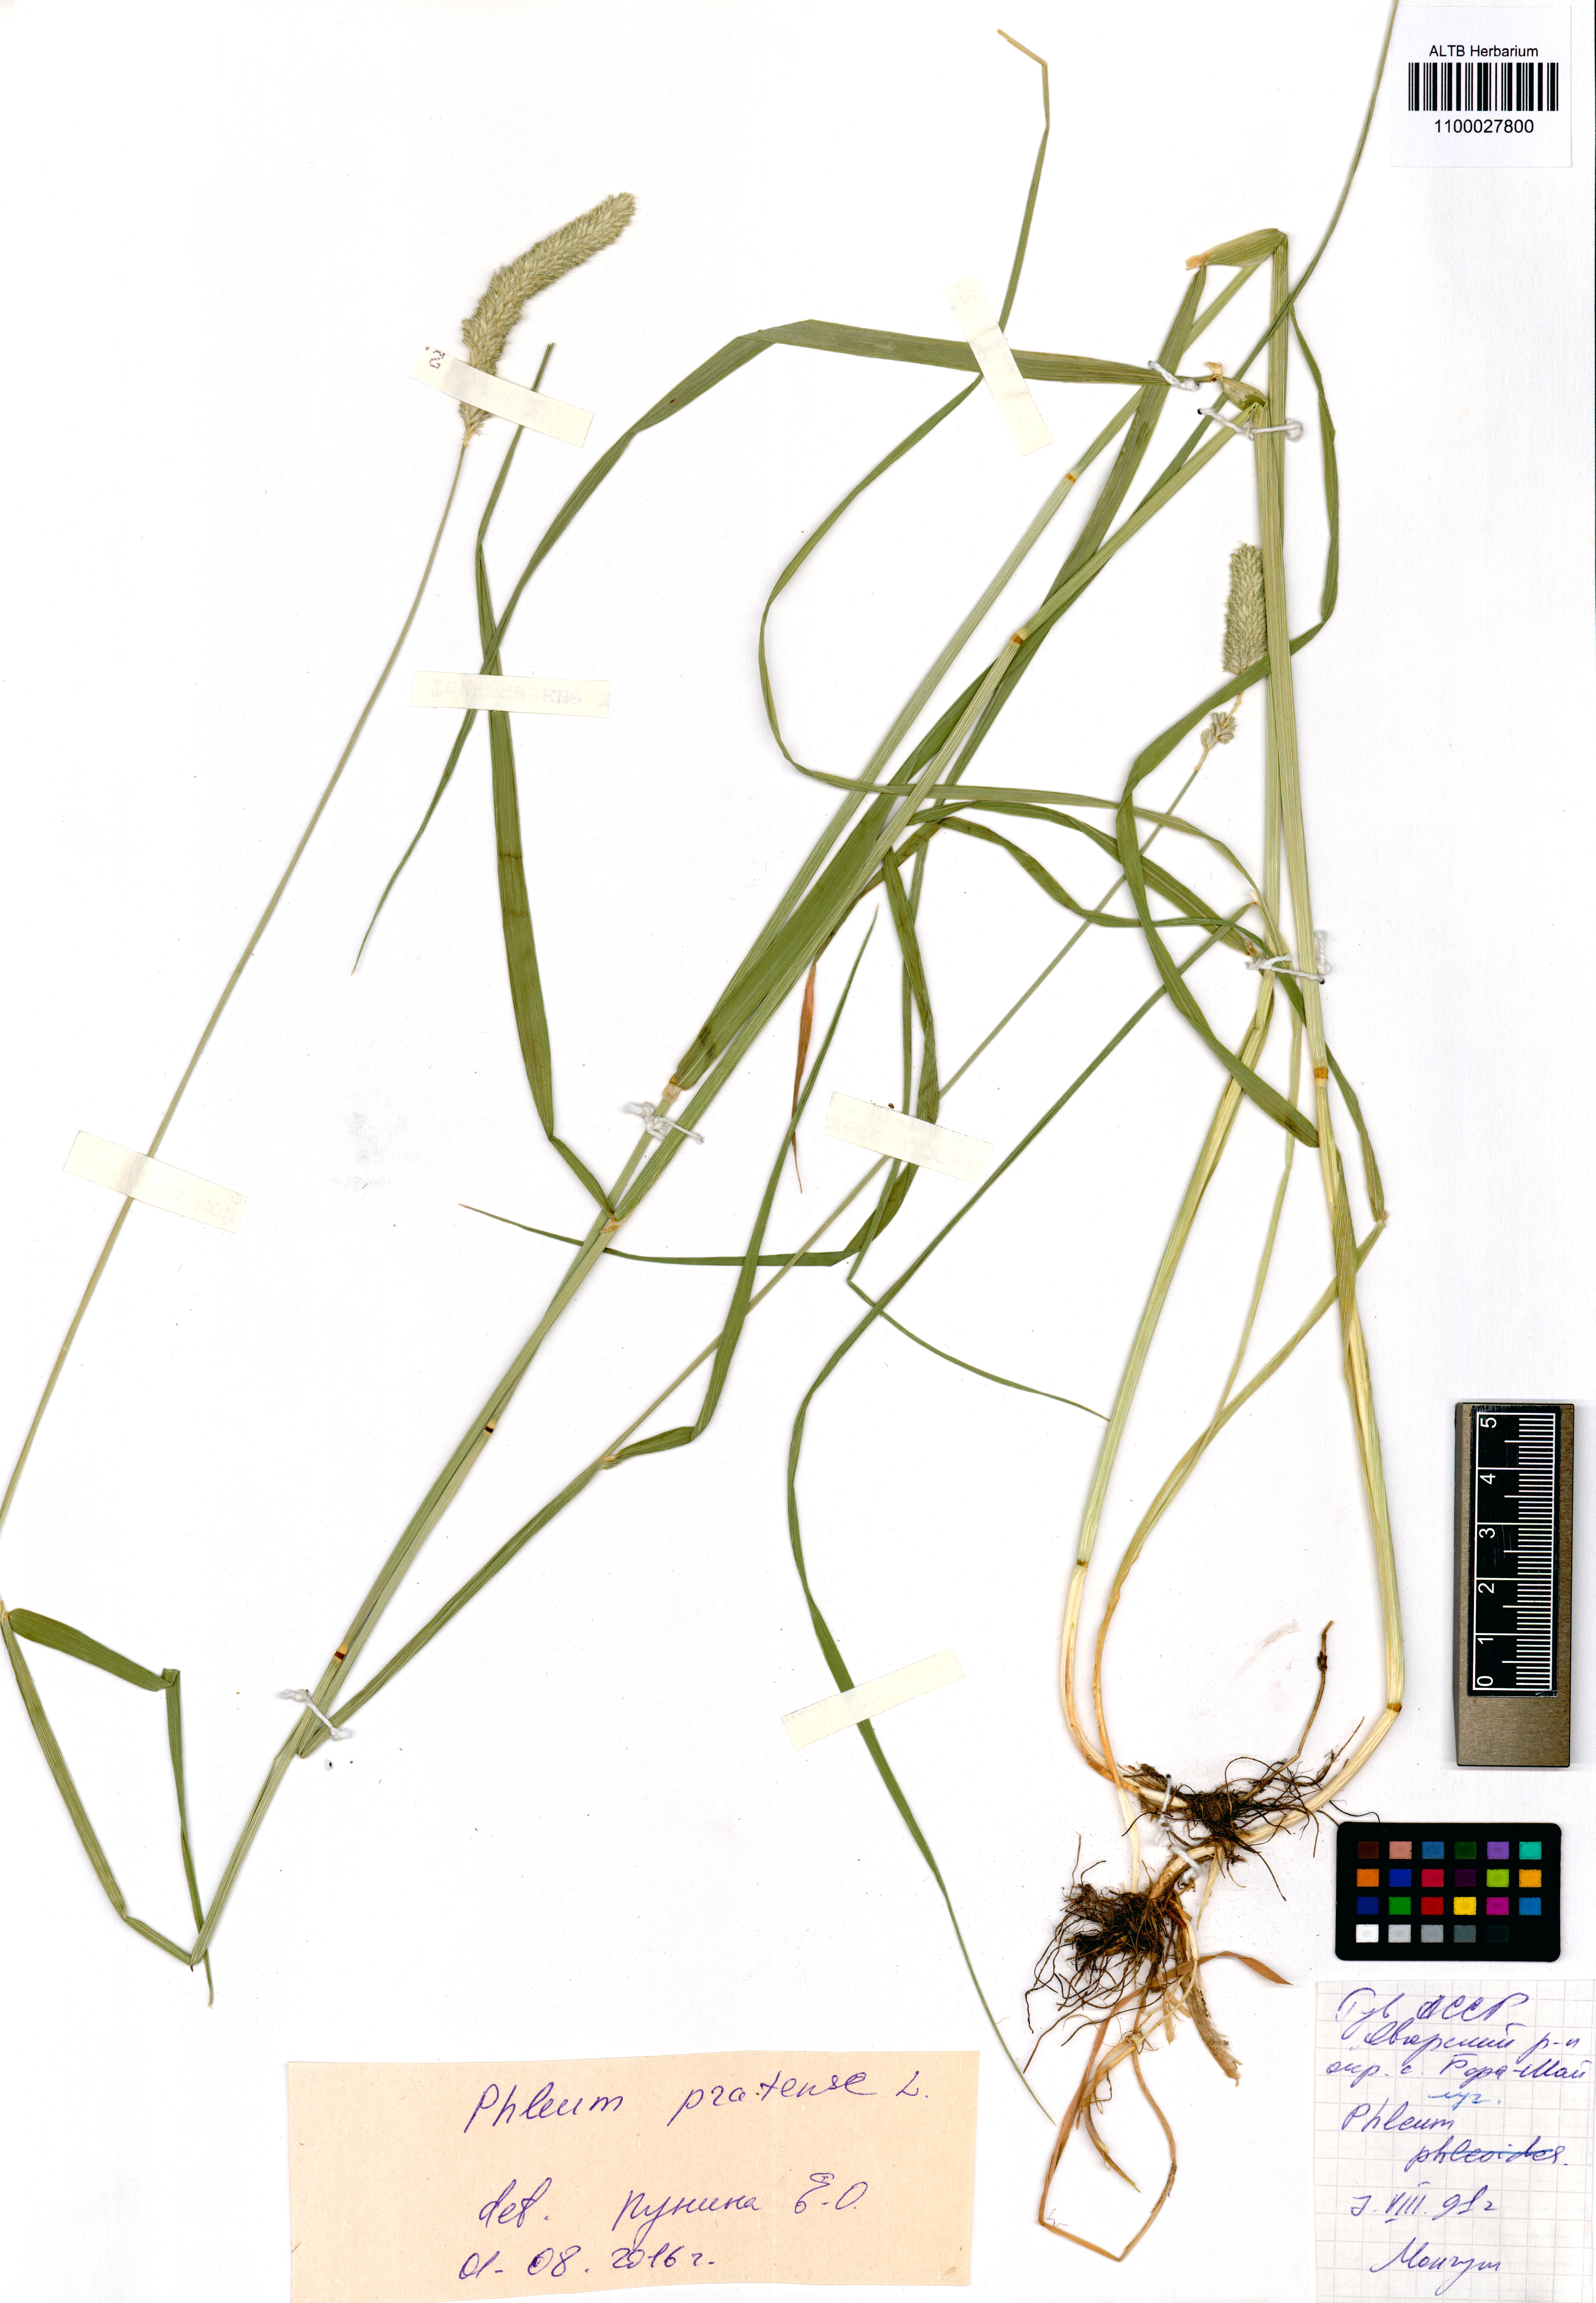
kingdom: Plantae
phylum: Tracheophyta
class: Liliopsida
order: Poales
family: Poaceae
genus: Phleum
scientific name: Phleum pratense
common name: Timothy grass
